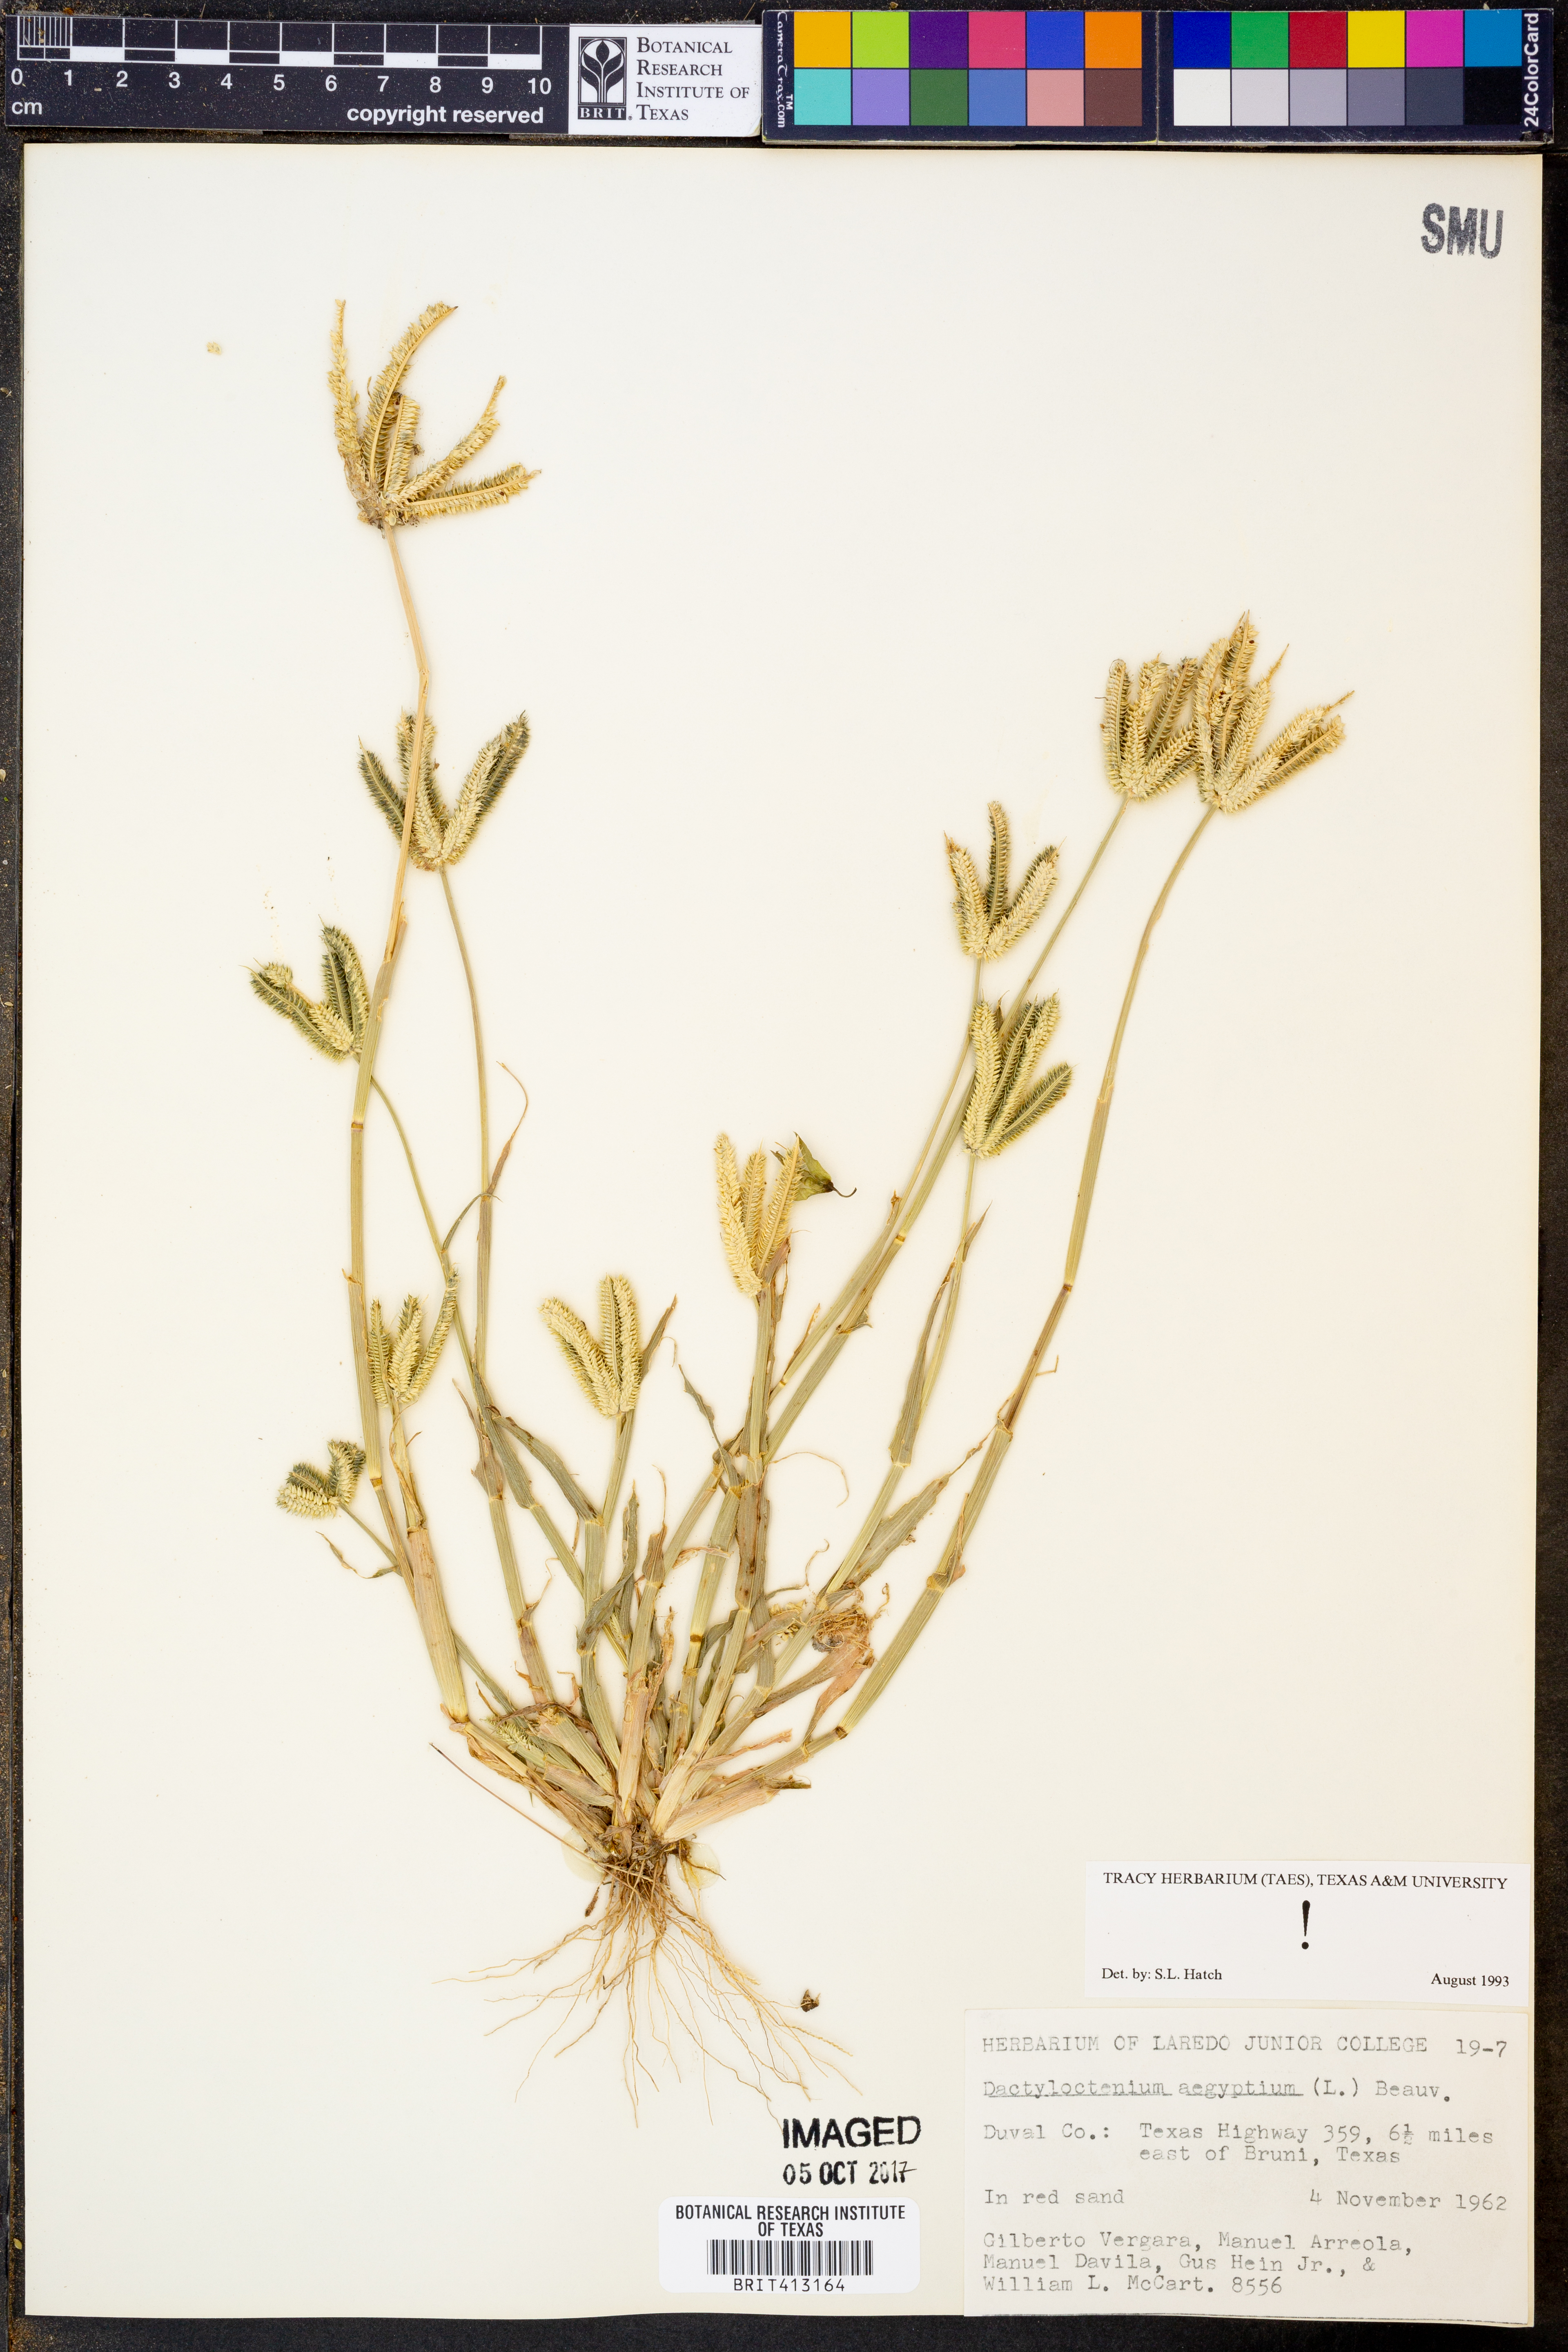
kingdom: Plantae
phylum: Tracheophyta
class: Liliopsida
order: Poales
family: Poaceae
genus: Dactyloctenium
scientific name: Dactyloctenium aegyptium
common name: Egyptian grass
